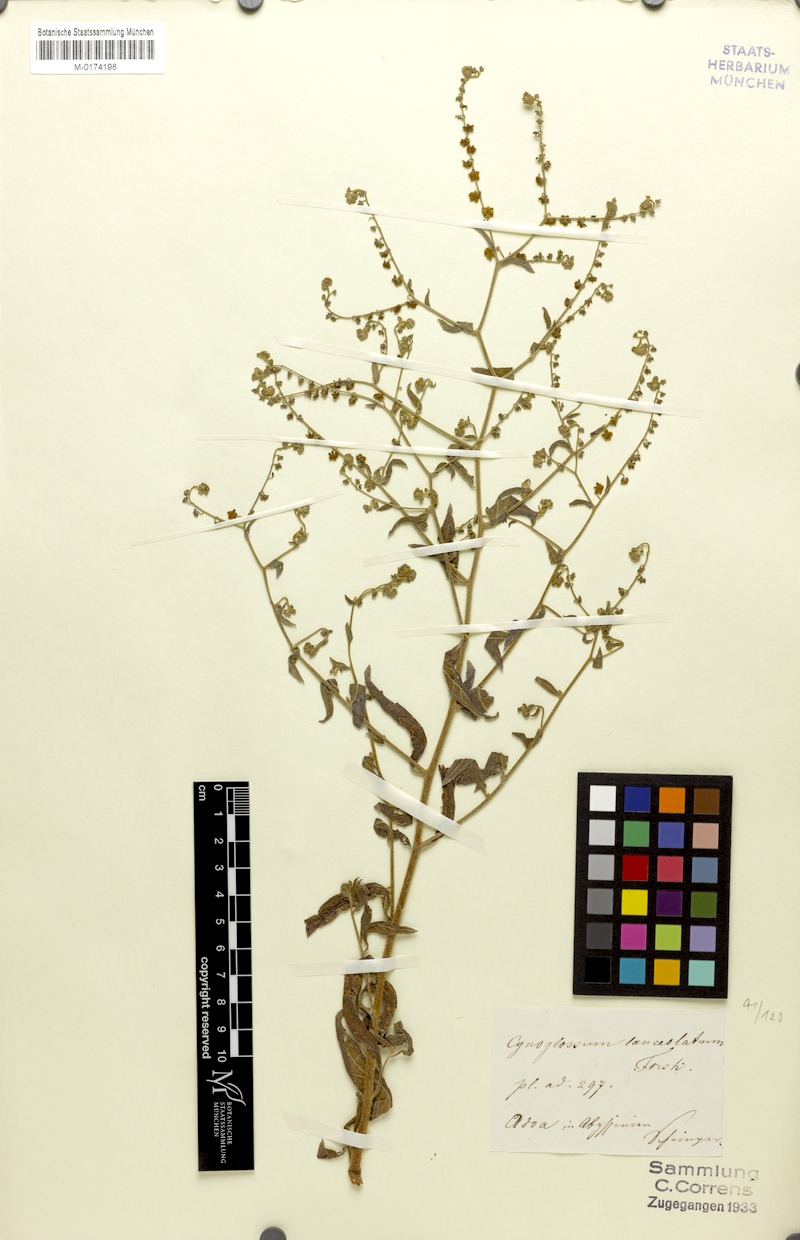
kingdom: Plantae
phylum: Tracheophyta
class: Magnoliopsida
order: Boraginales
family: Boraginaceae
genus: Paracynoglossum
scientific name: Paracynoglossum lanceolatum
